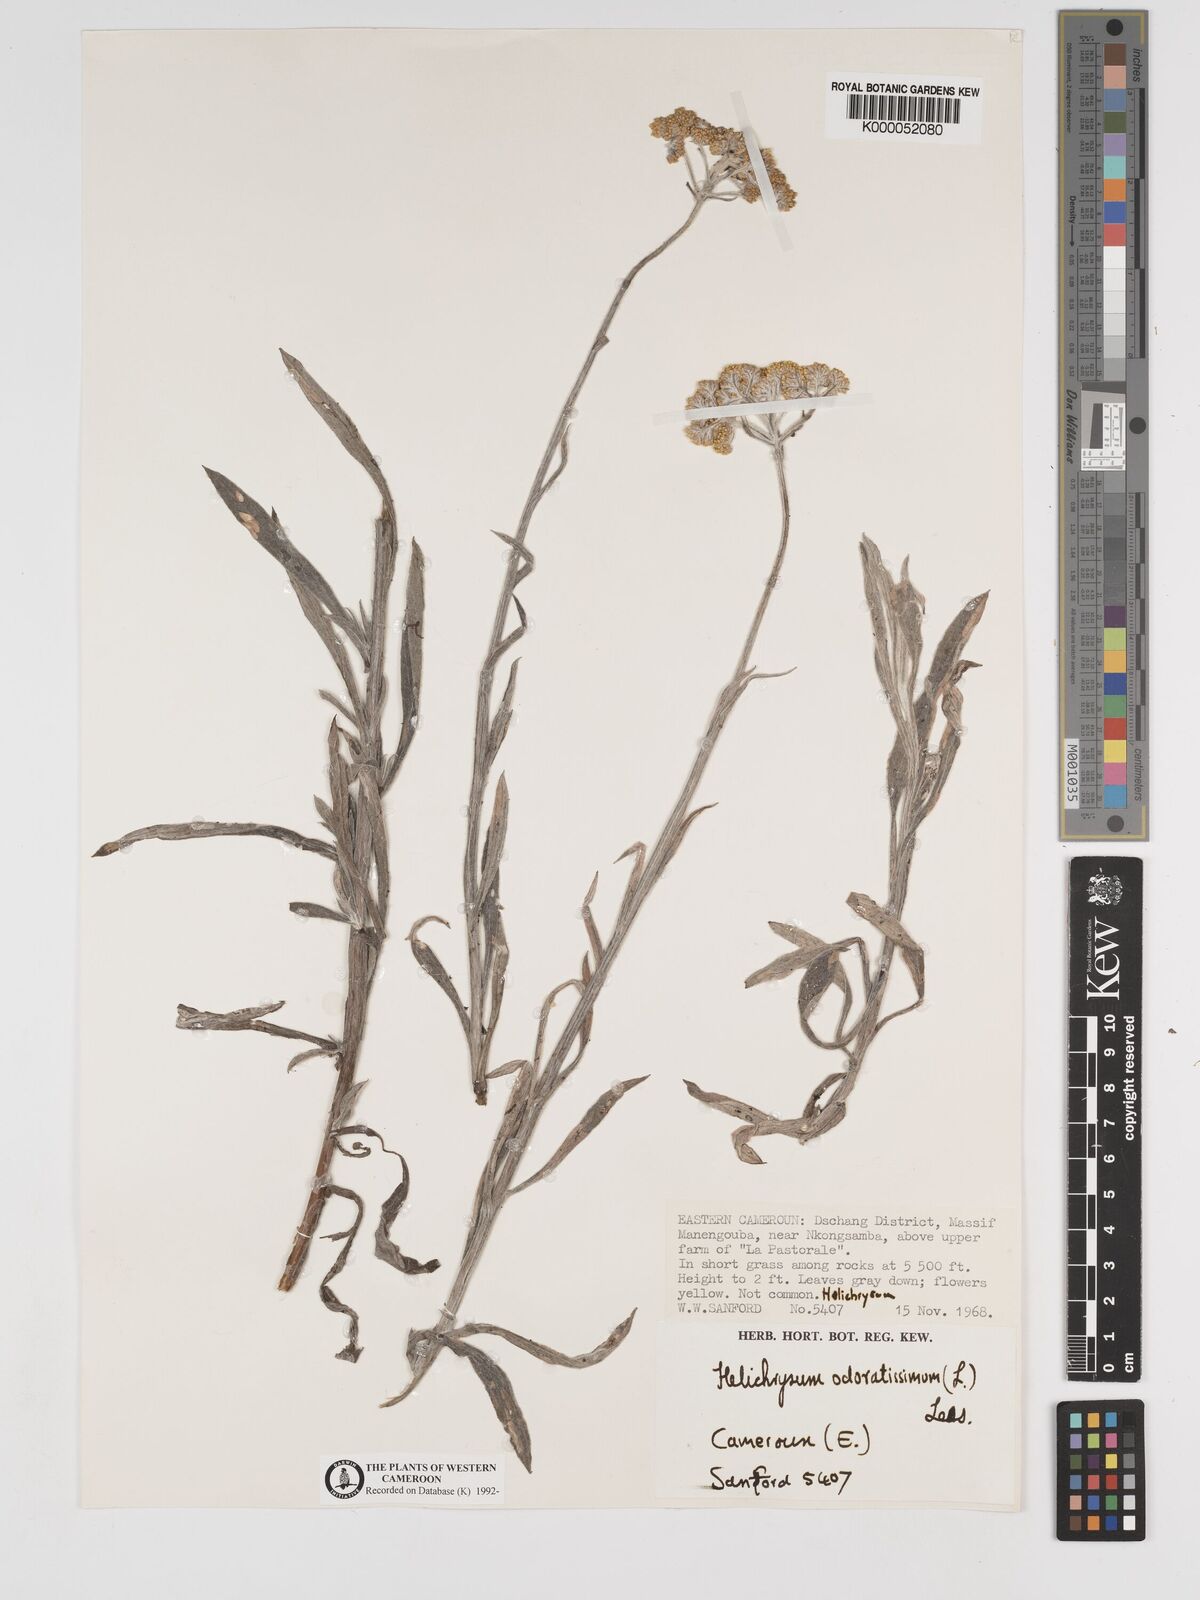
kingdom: Plantae
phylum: Tracheophyta
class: Magnoliopsida
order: Asterales
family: Asteraceae
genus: Helichrysum
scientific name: Helichrysum odoratissimum
